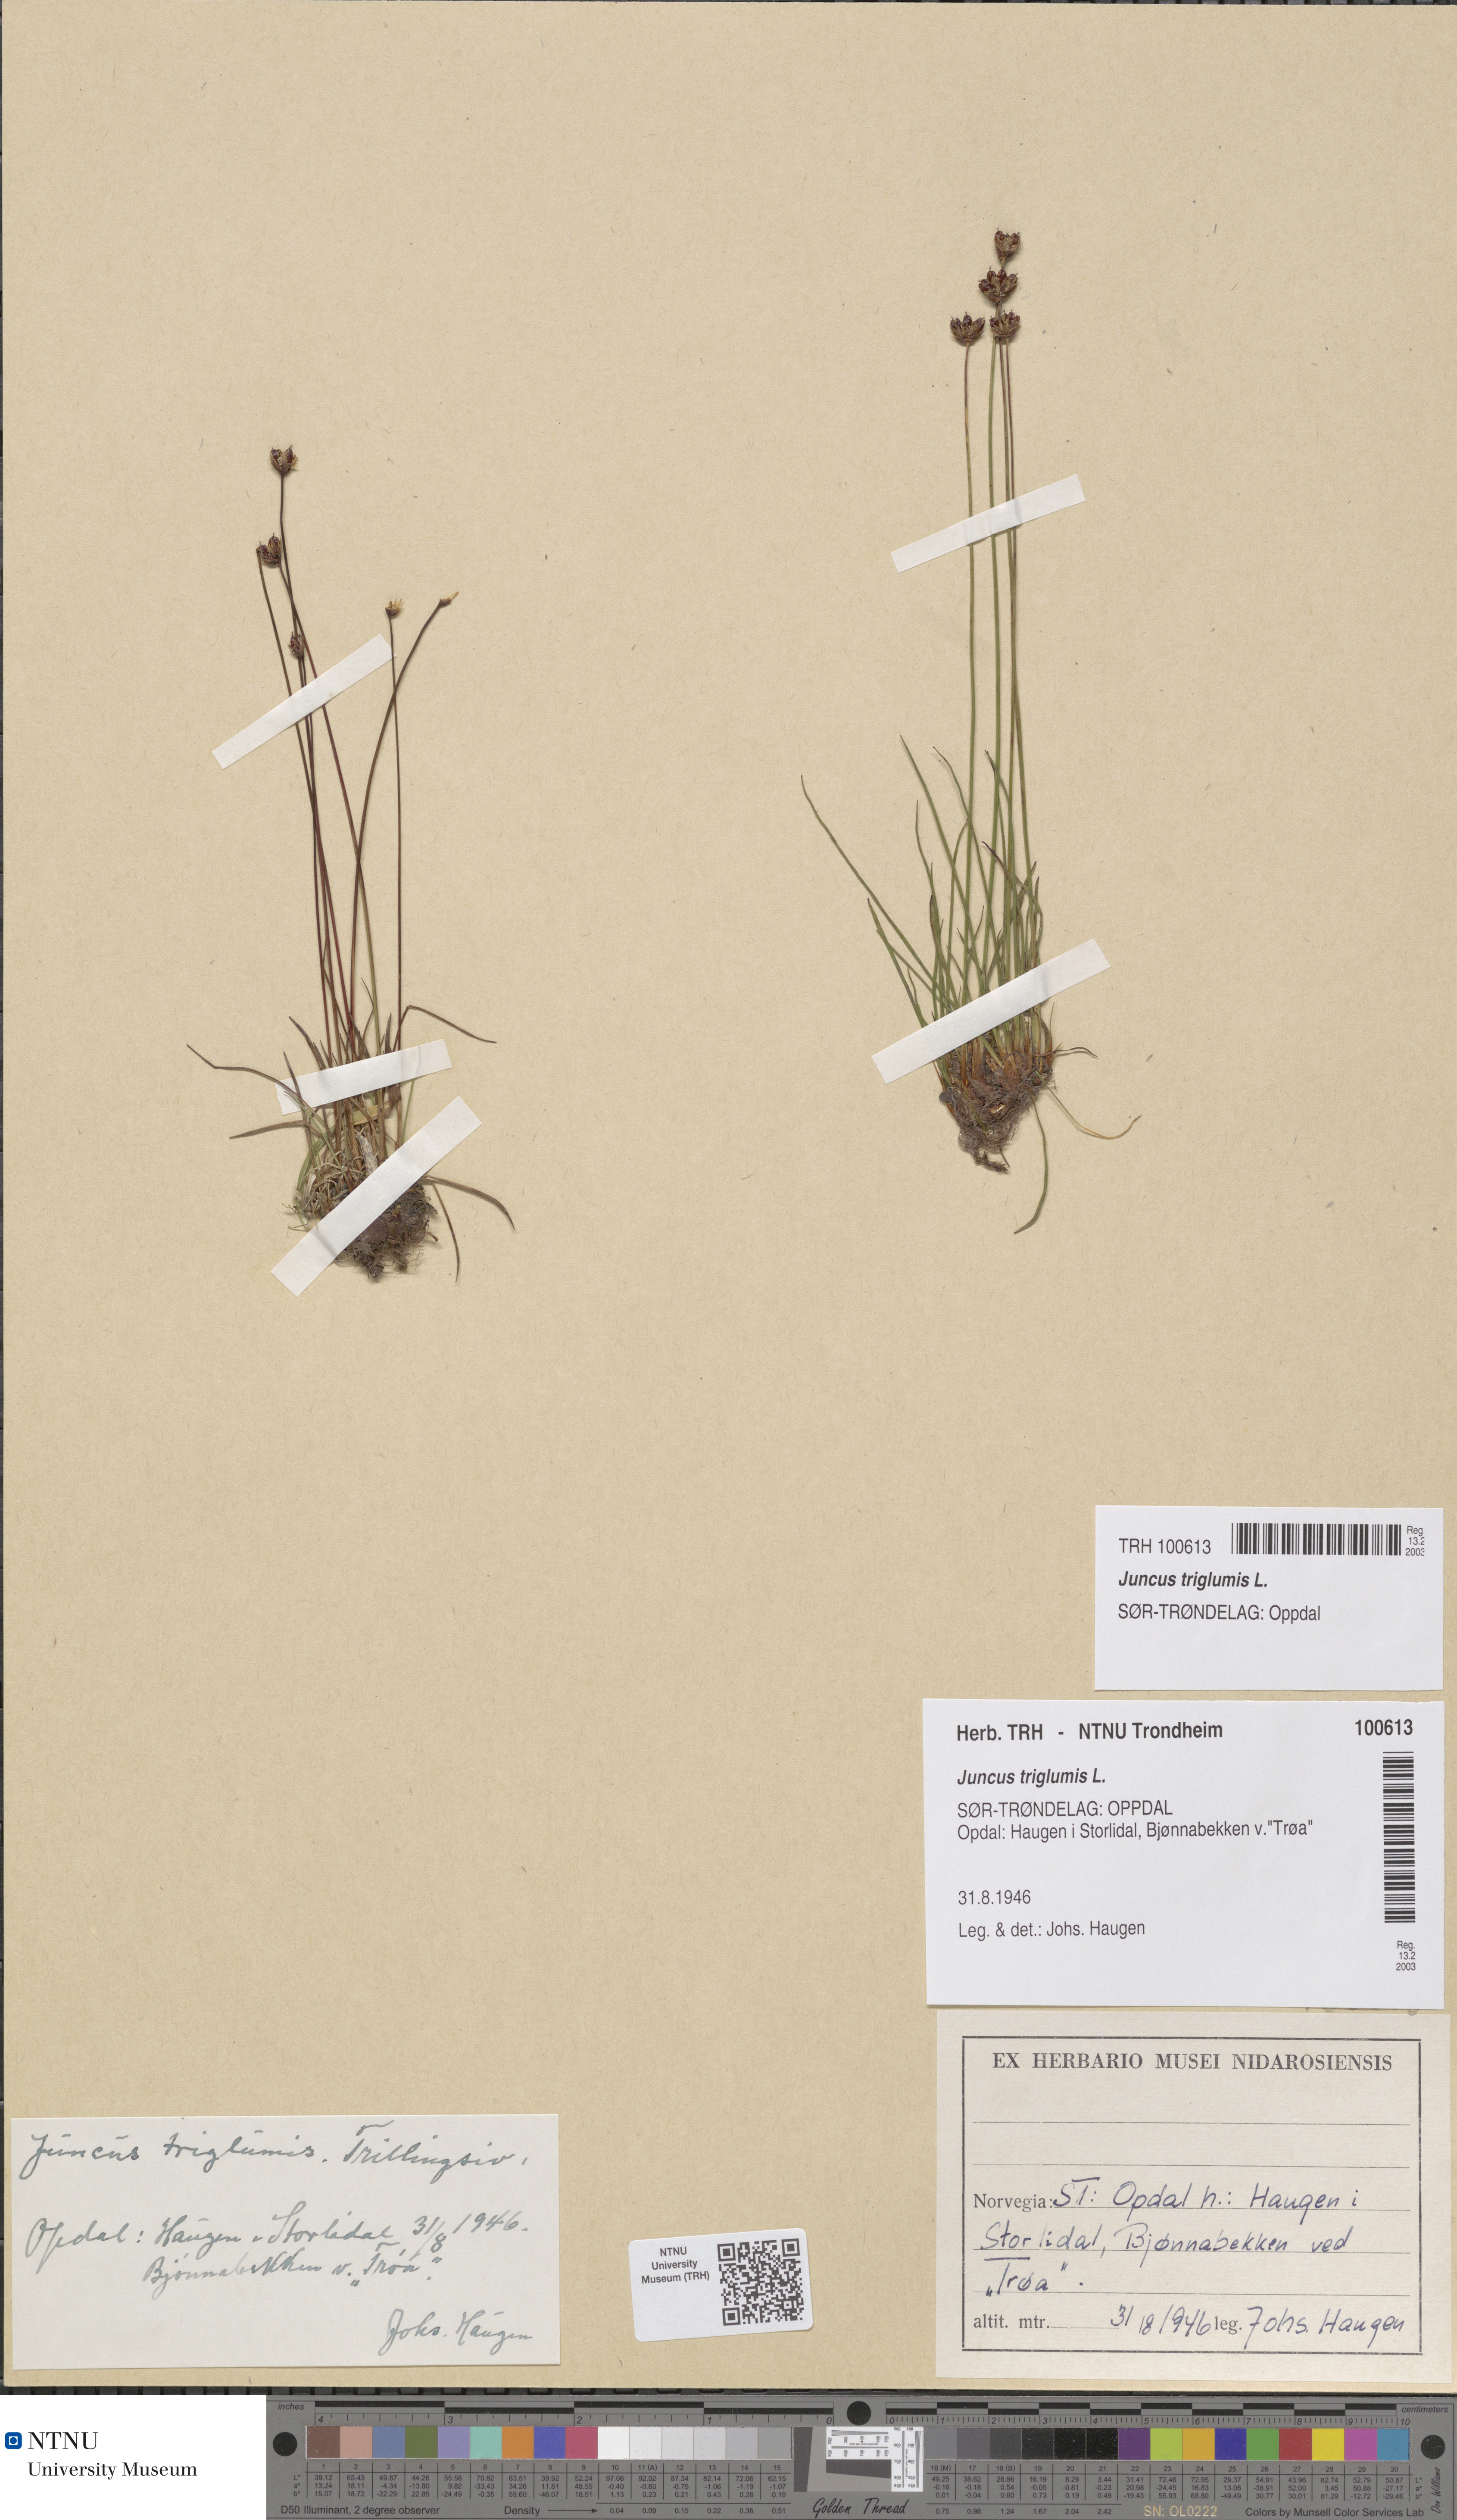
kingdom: Plantae
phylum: Tracheophyta
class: Liliopsida
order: Poales
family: Juncaceae
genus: Juncus
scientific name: Juncus triglumis
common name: Three-flowered rush
